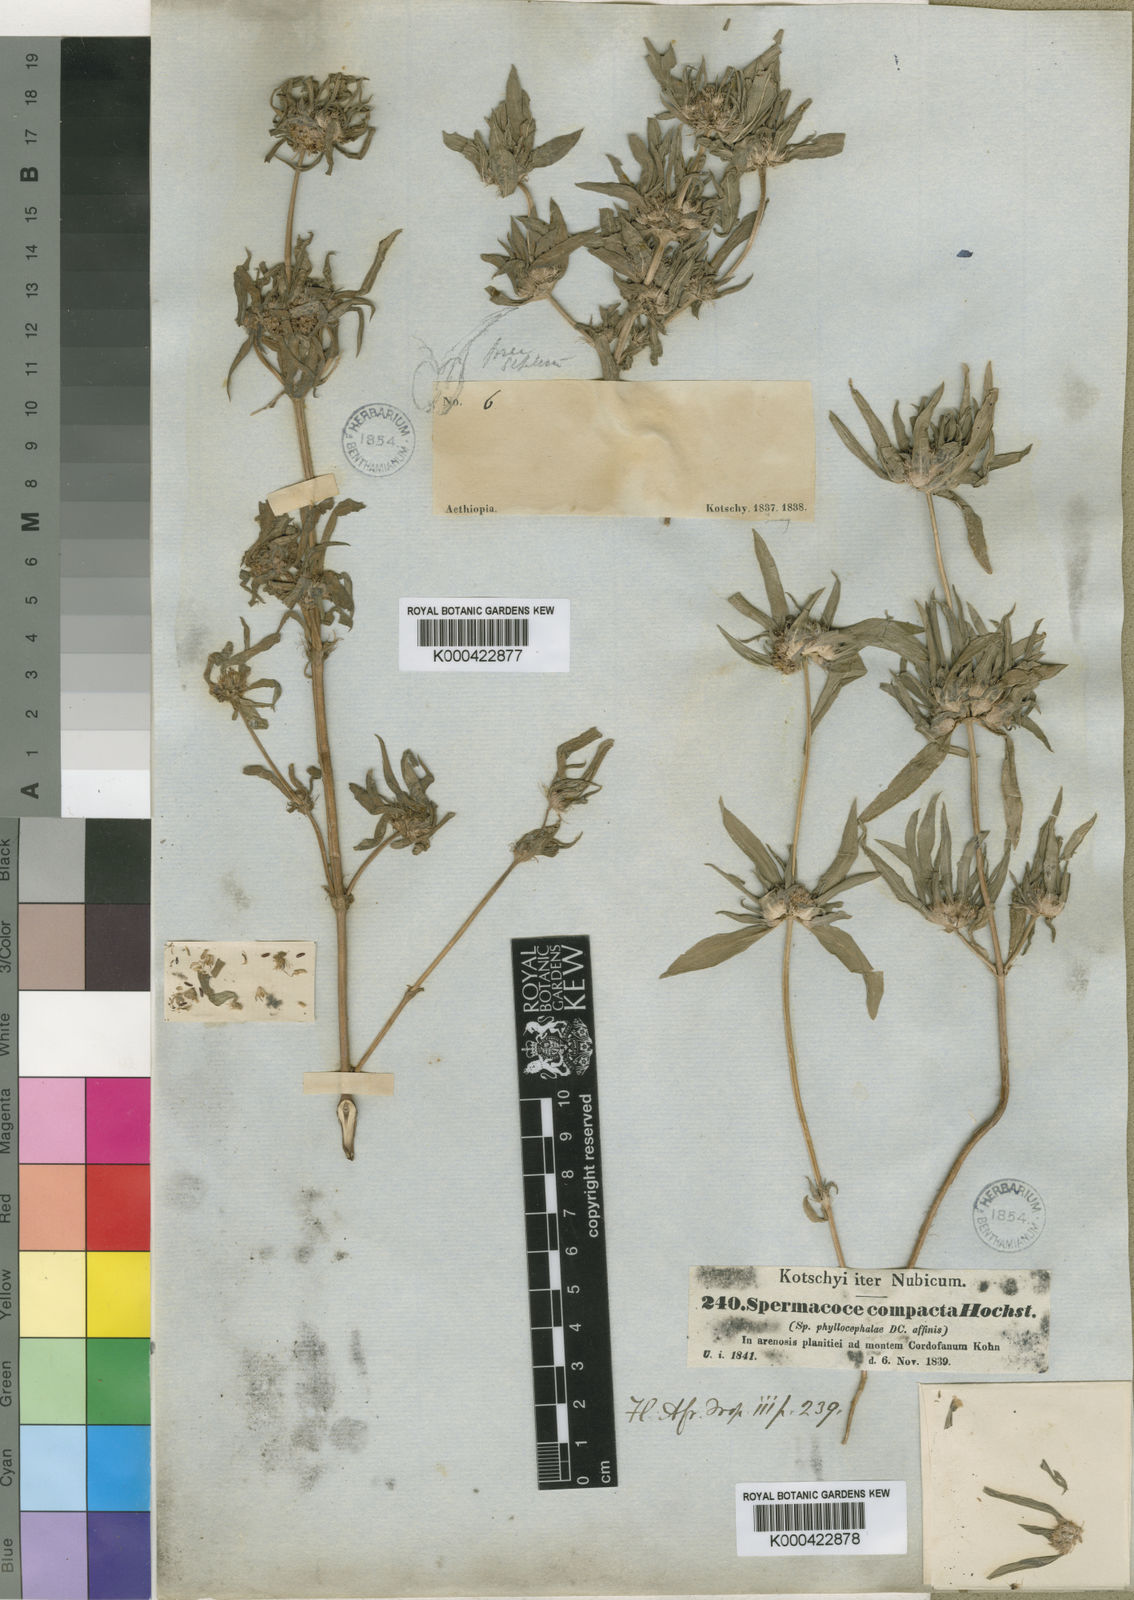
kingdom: Plantae
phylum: Tracheophyta
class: Magnoliopsida
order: Gentianales
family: Rubiaceae
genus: Spermacoce
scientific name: Spermacoce chaetocephala
